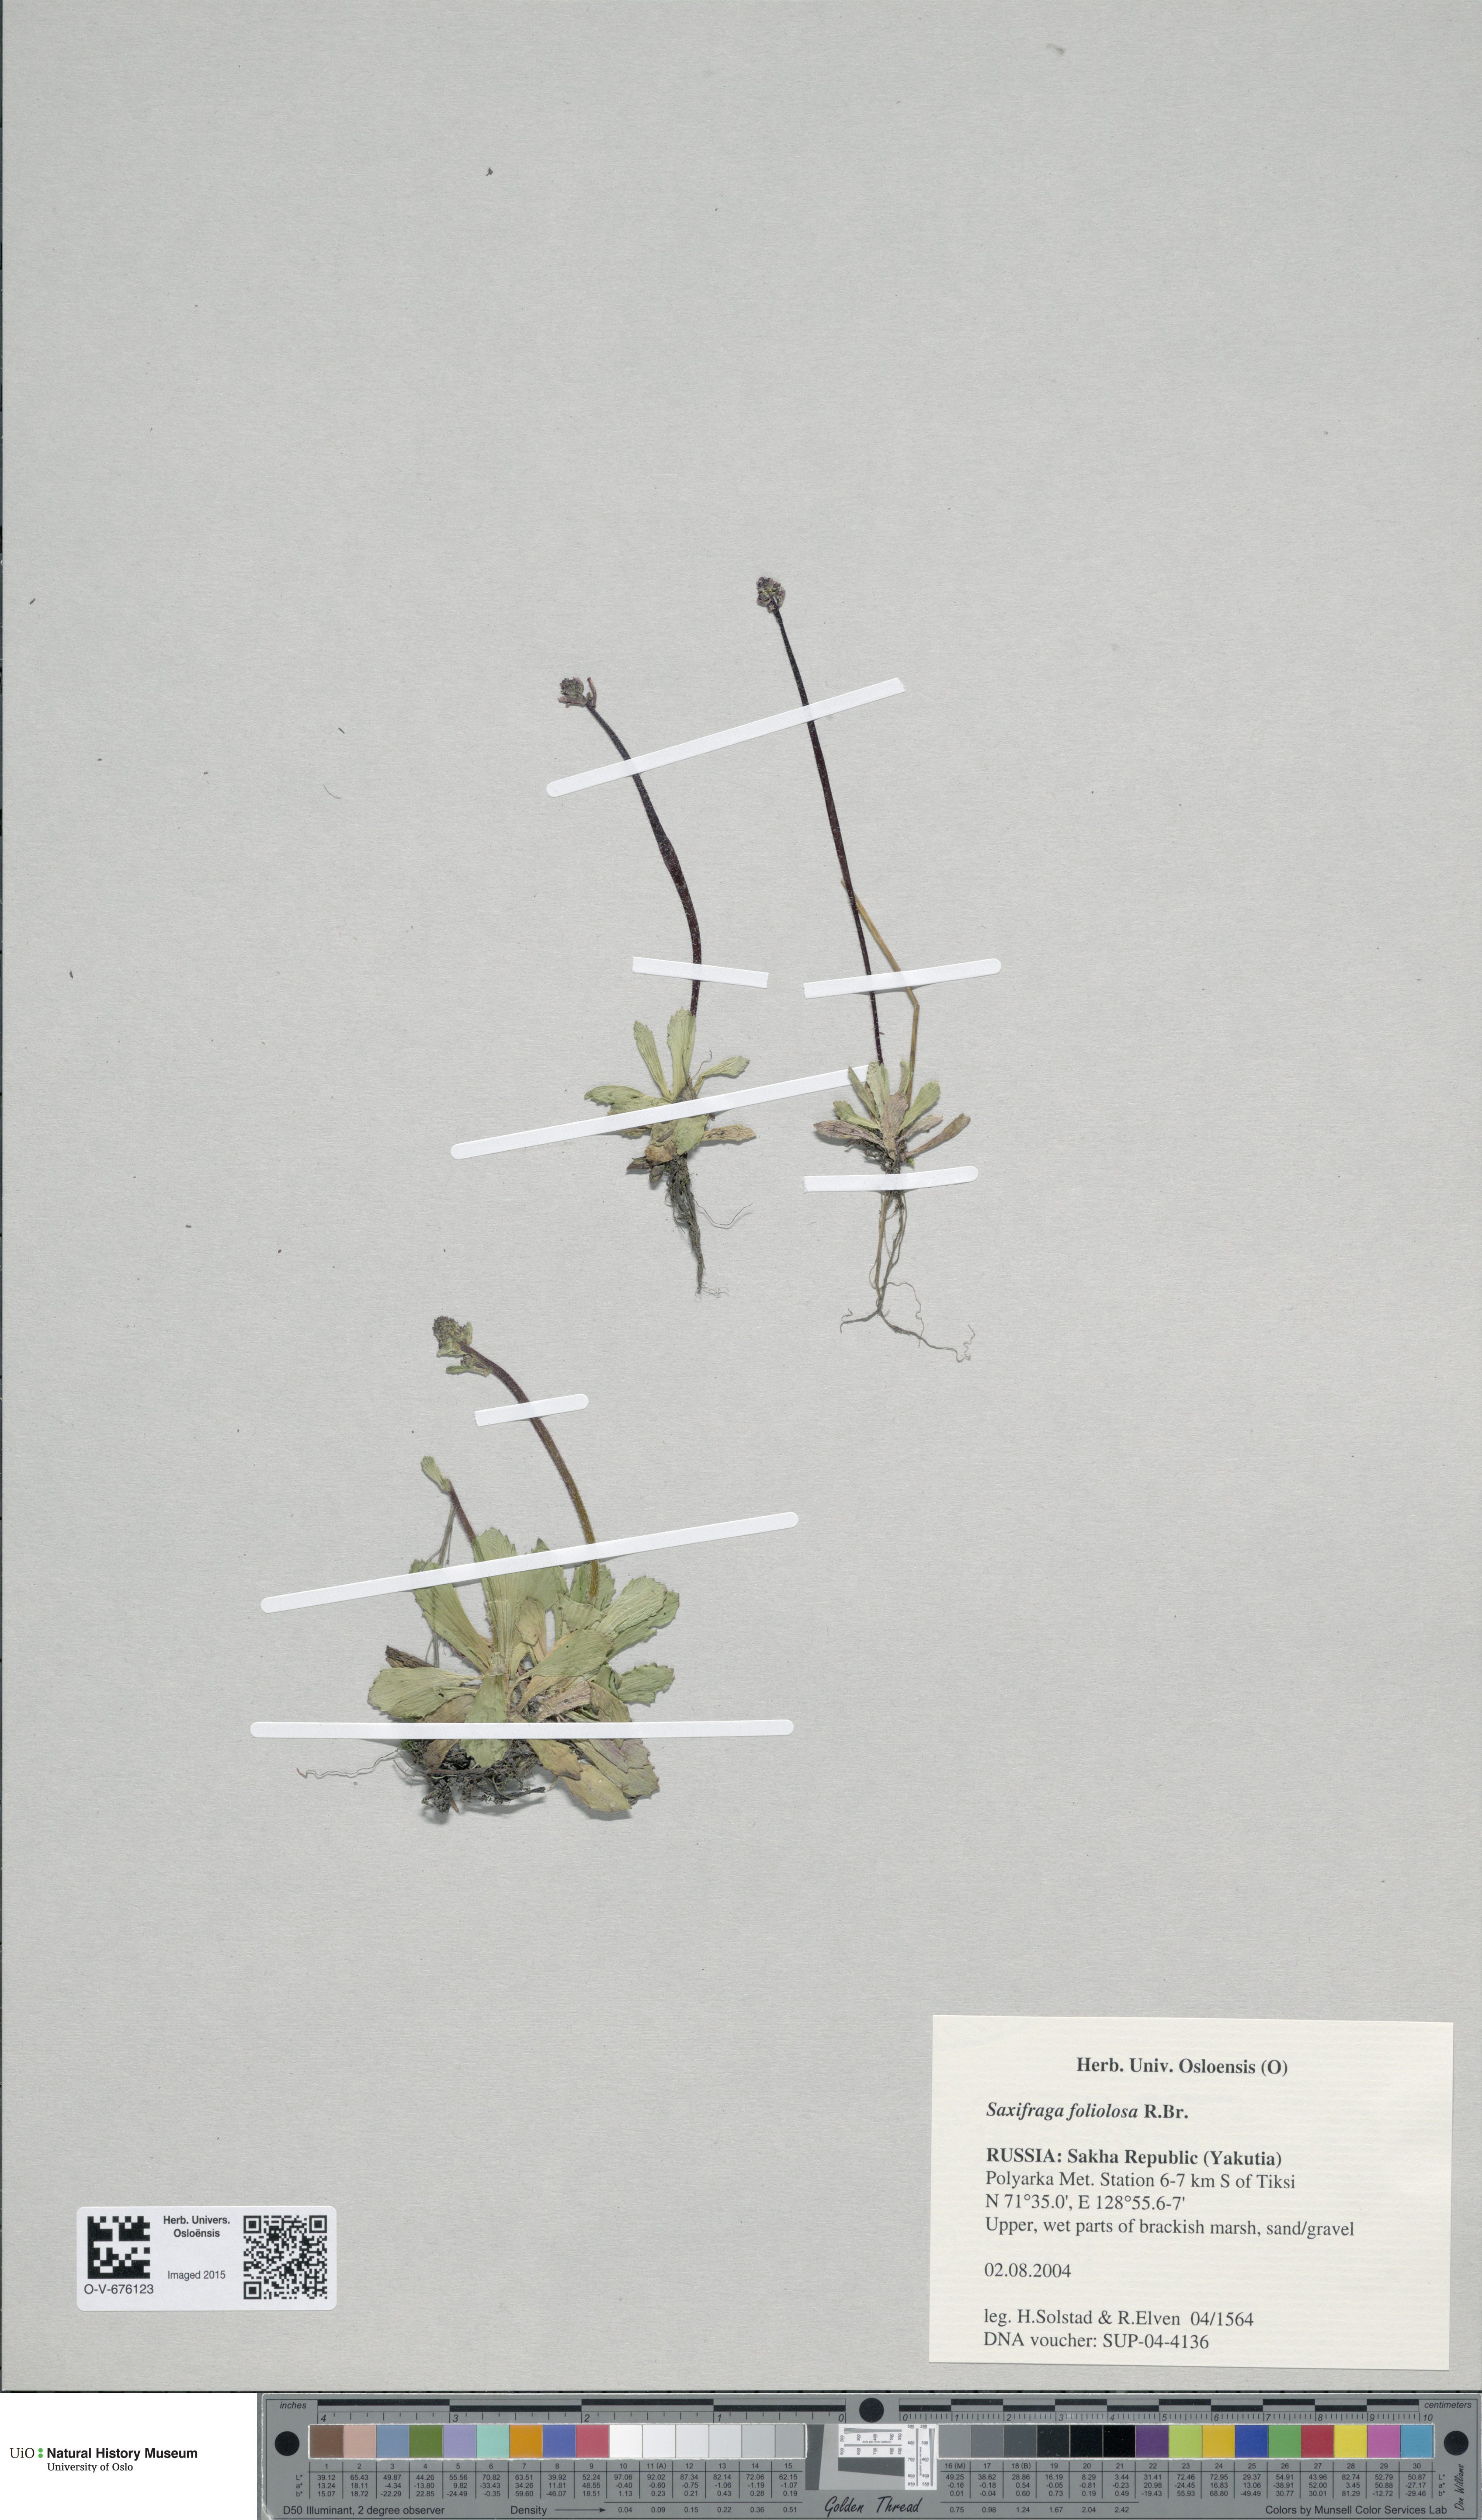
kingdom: Plantae
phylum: Tracheophyta
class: Magnoliopsida
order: Saxifragales
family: Saxifragaceae
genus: Micranthes
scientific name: Micranthes foliolosa
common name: Leafystem saxifrage
